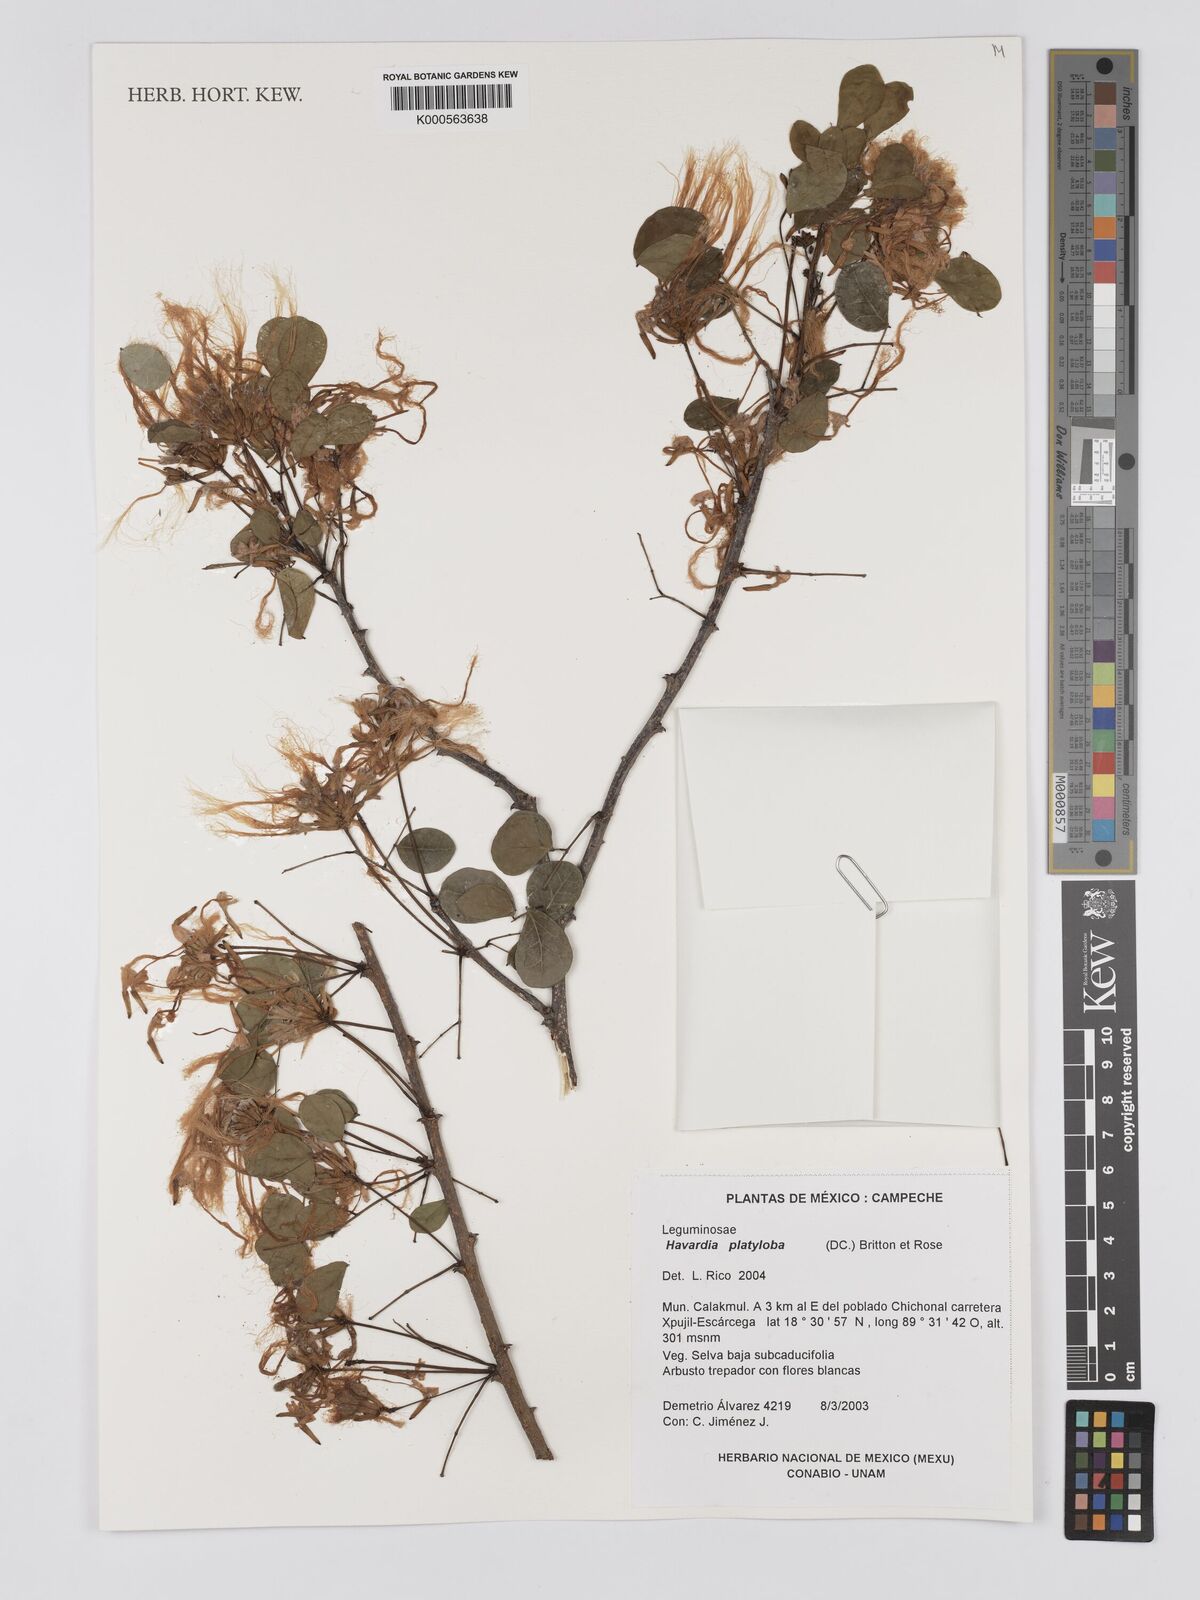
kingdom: Plantae
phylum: Tracheophyta
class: Magnoliopsida
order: Fabales
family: Fabaceae
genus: Havardia
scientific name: Havardia platyloba
